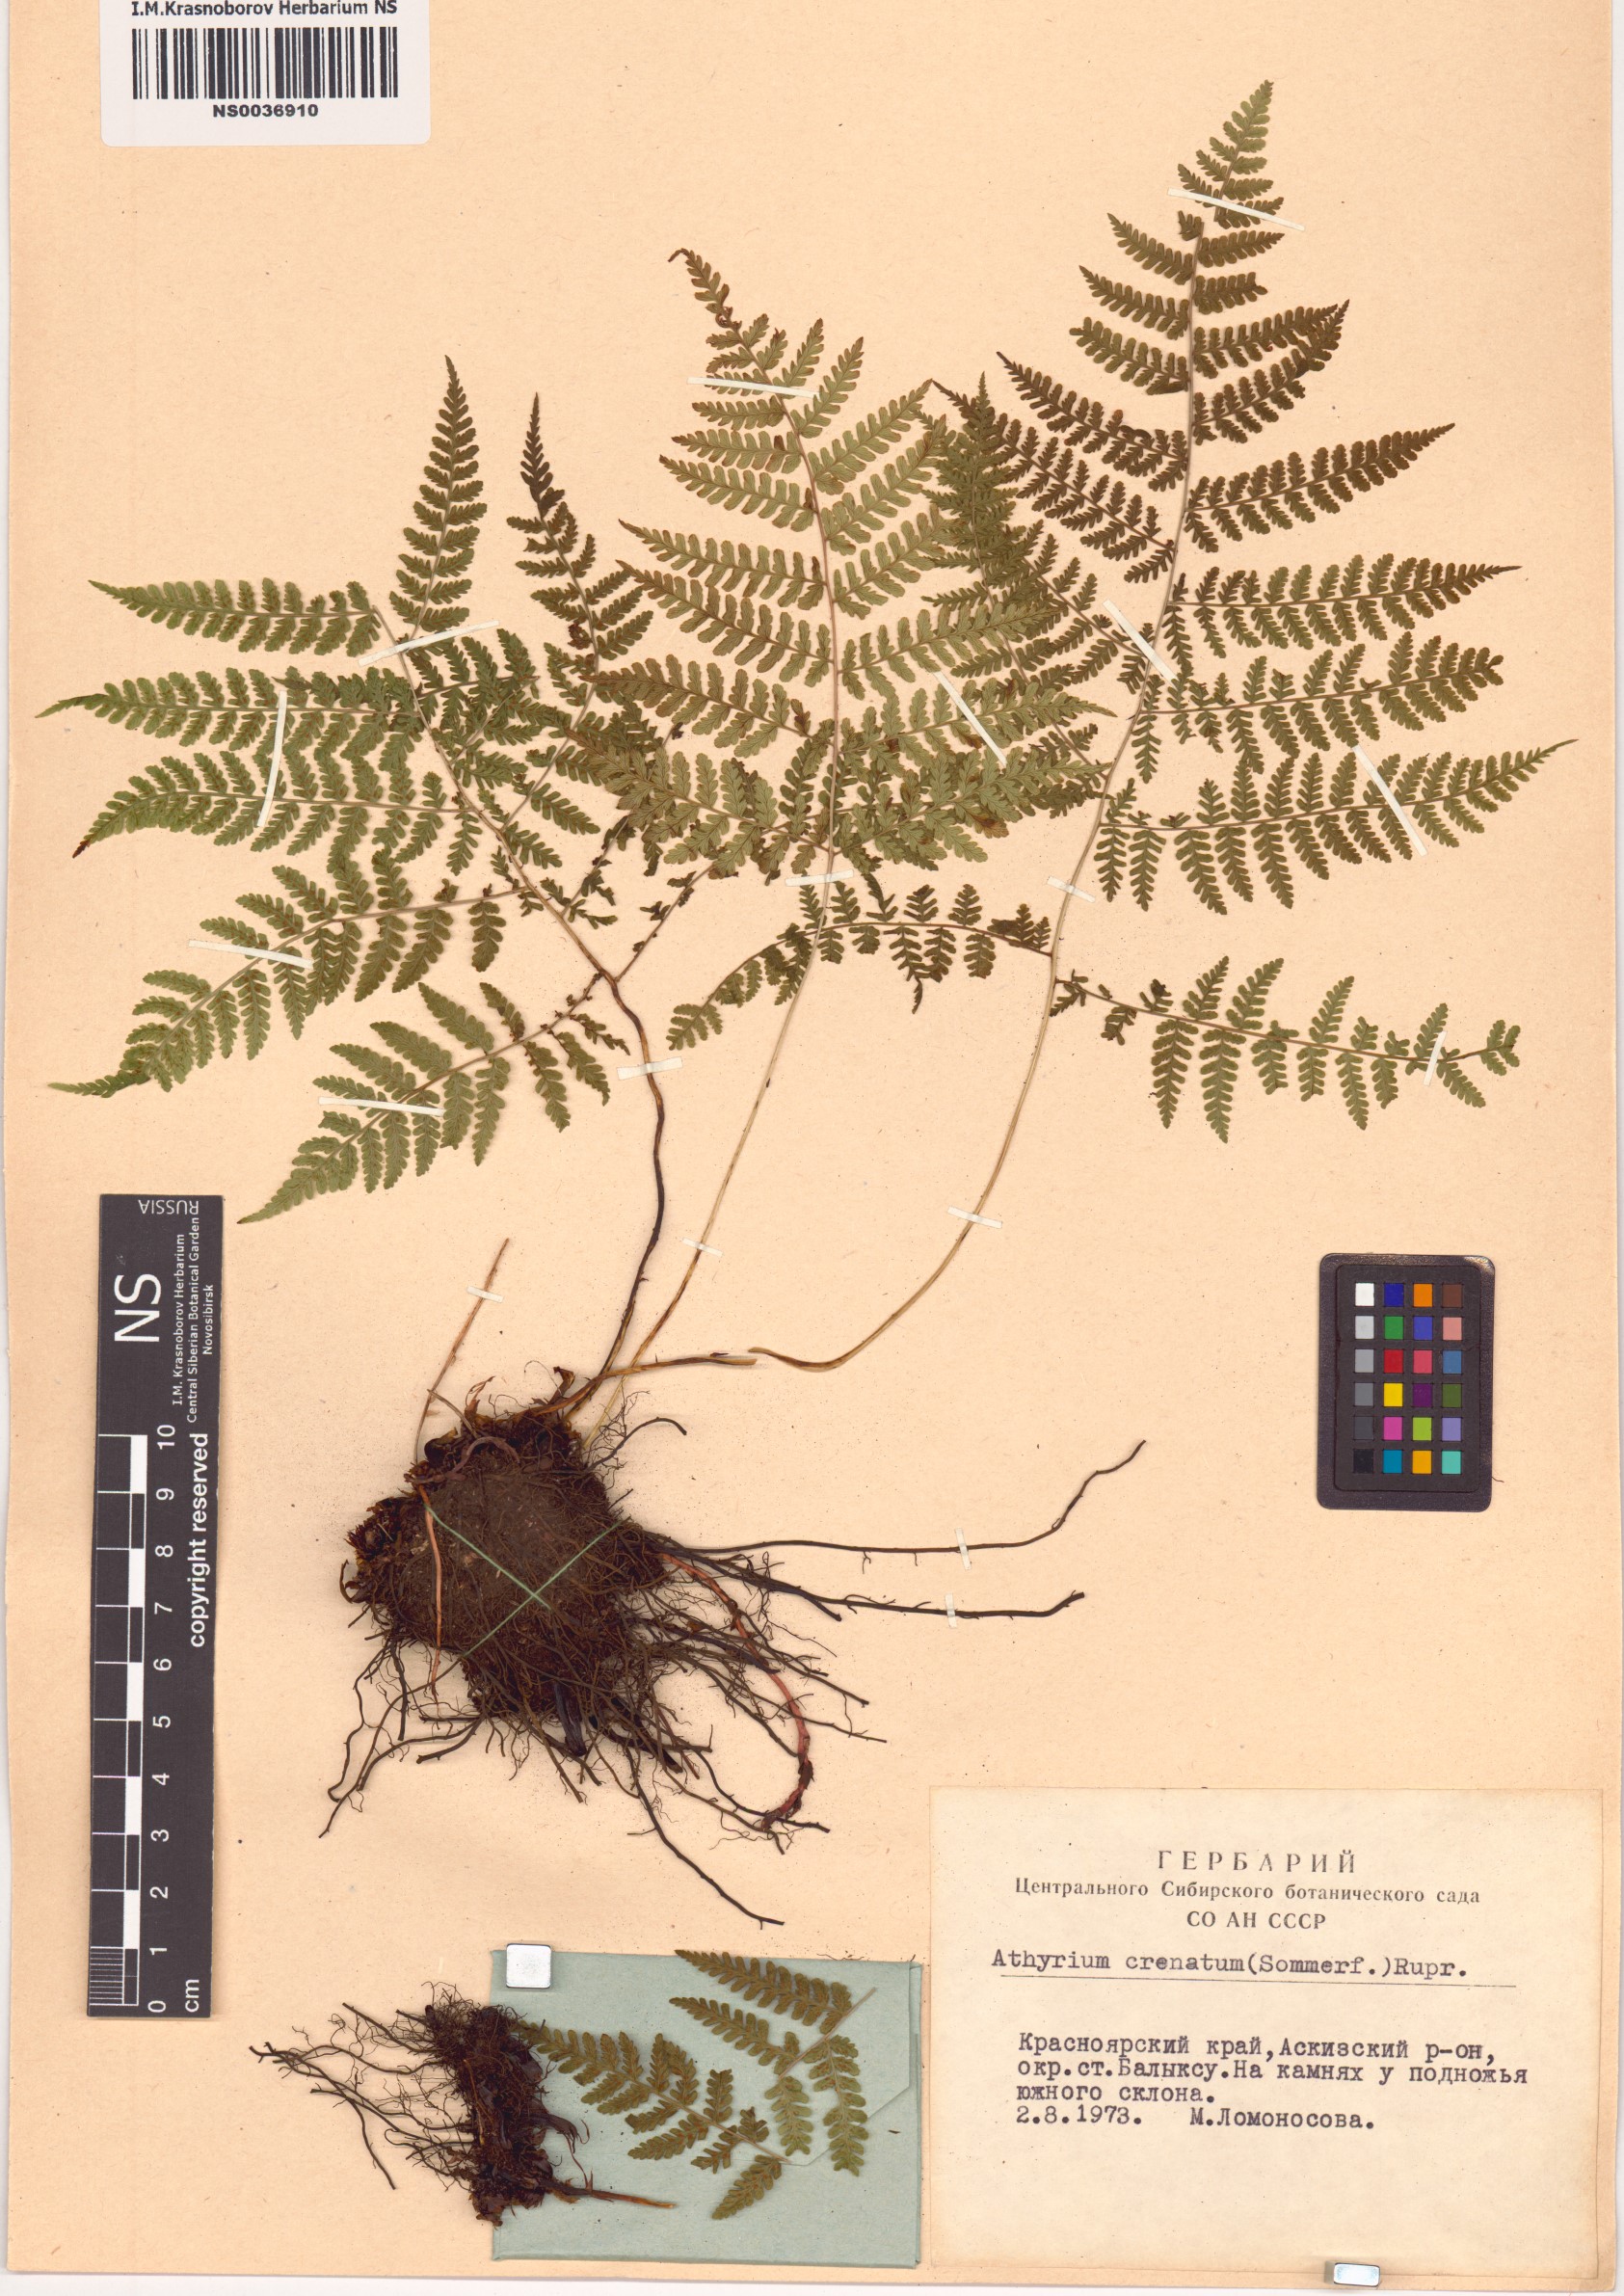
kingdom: Plantae
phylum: Tracheophyta
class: Polypodiopsida
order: Polypodiales
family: Athyriaceae
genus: Diplazium
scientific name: Diplazium sibiricum
